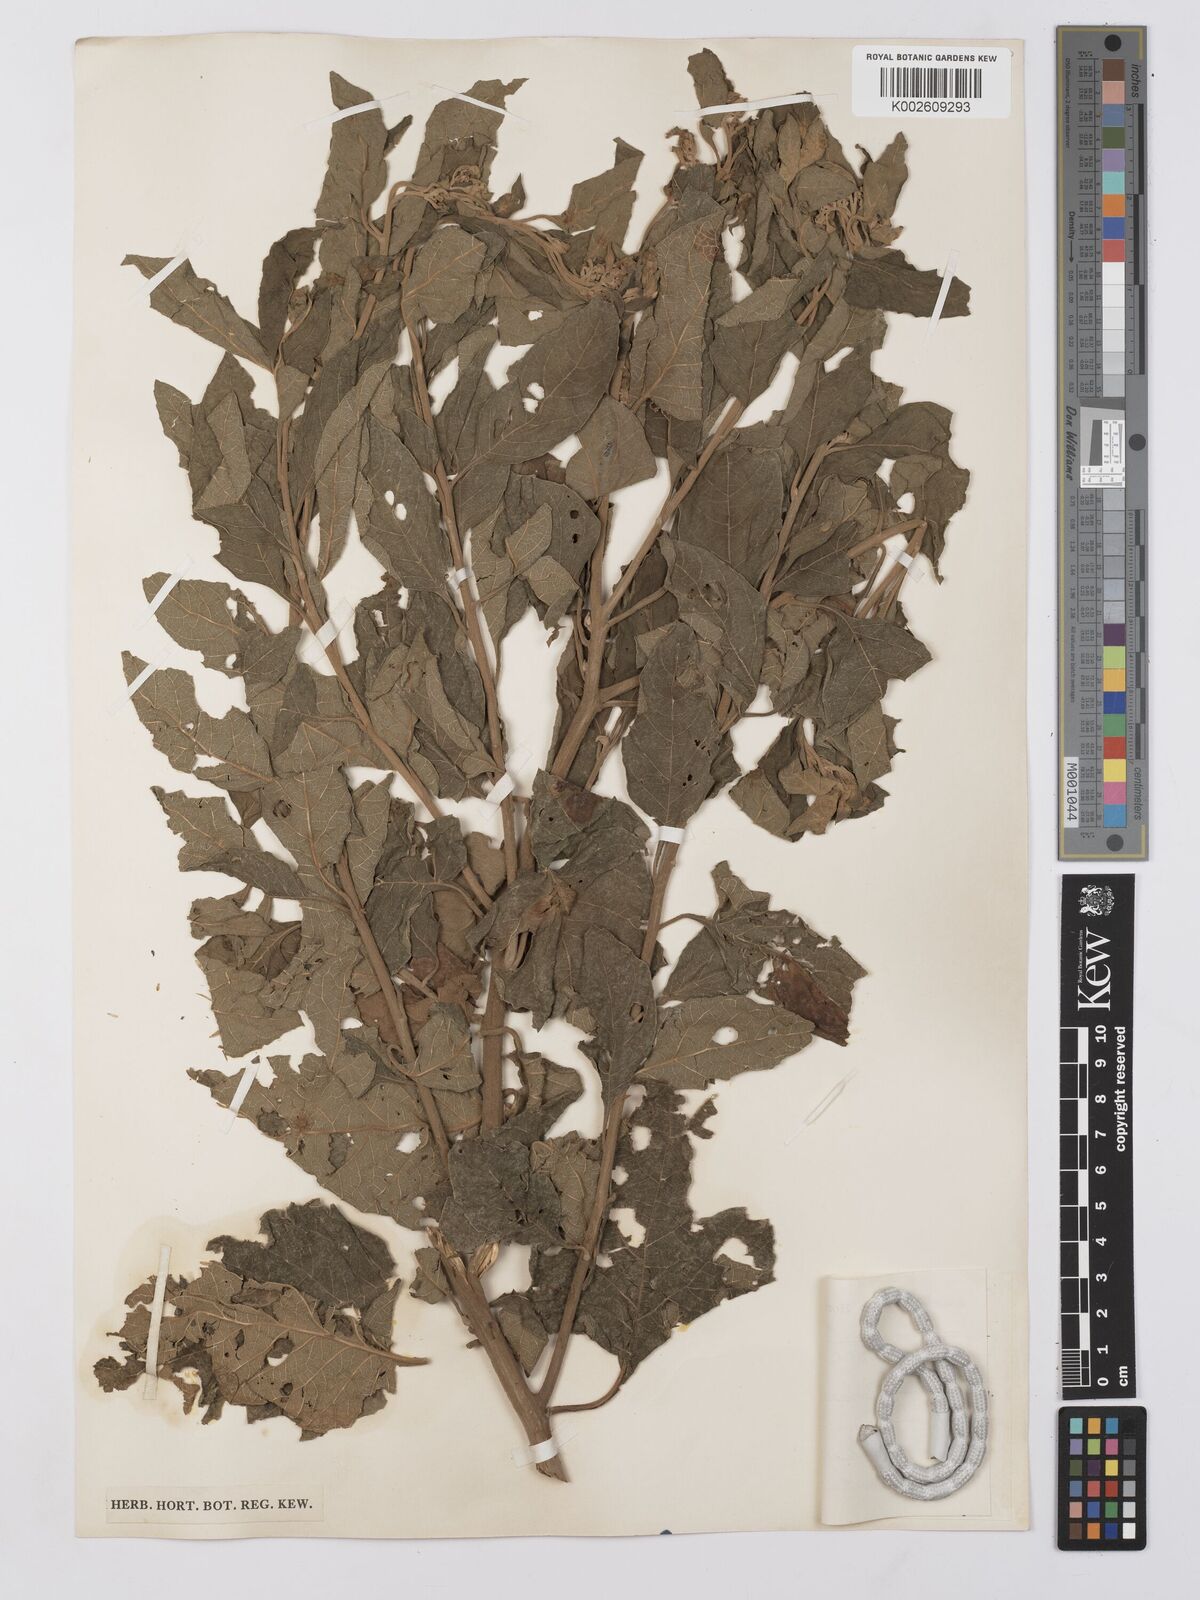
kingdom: Plantae
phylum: Tracheophyta
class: Magnoliopsida
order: Asterales
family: Asteraceae
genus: Gymnanthemum
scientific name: Gymnanthemum thomsonianum
